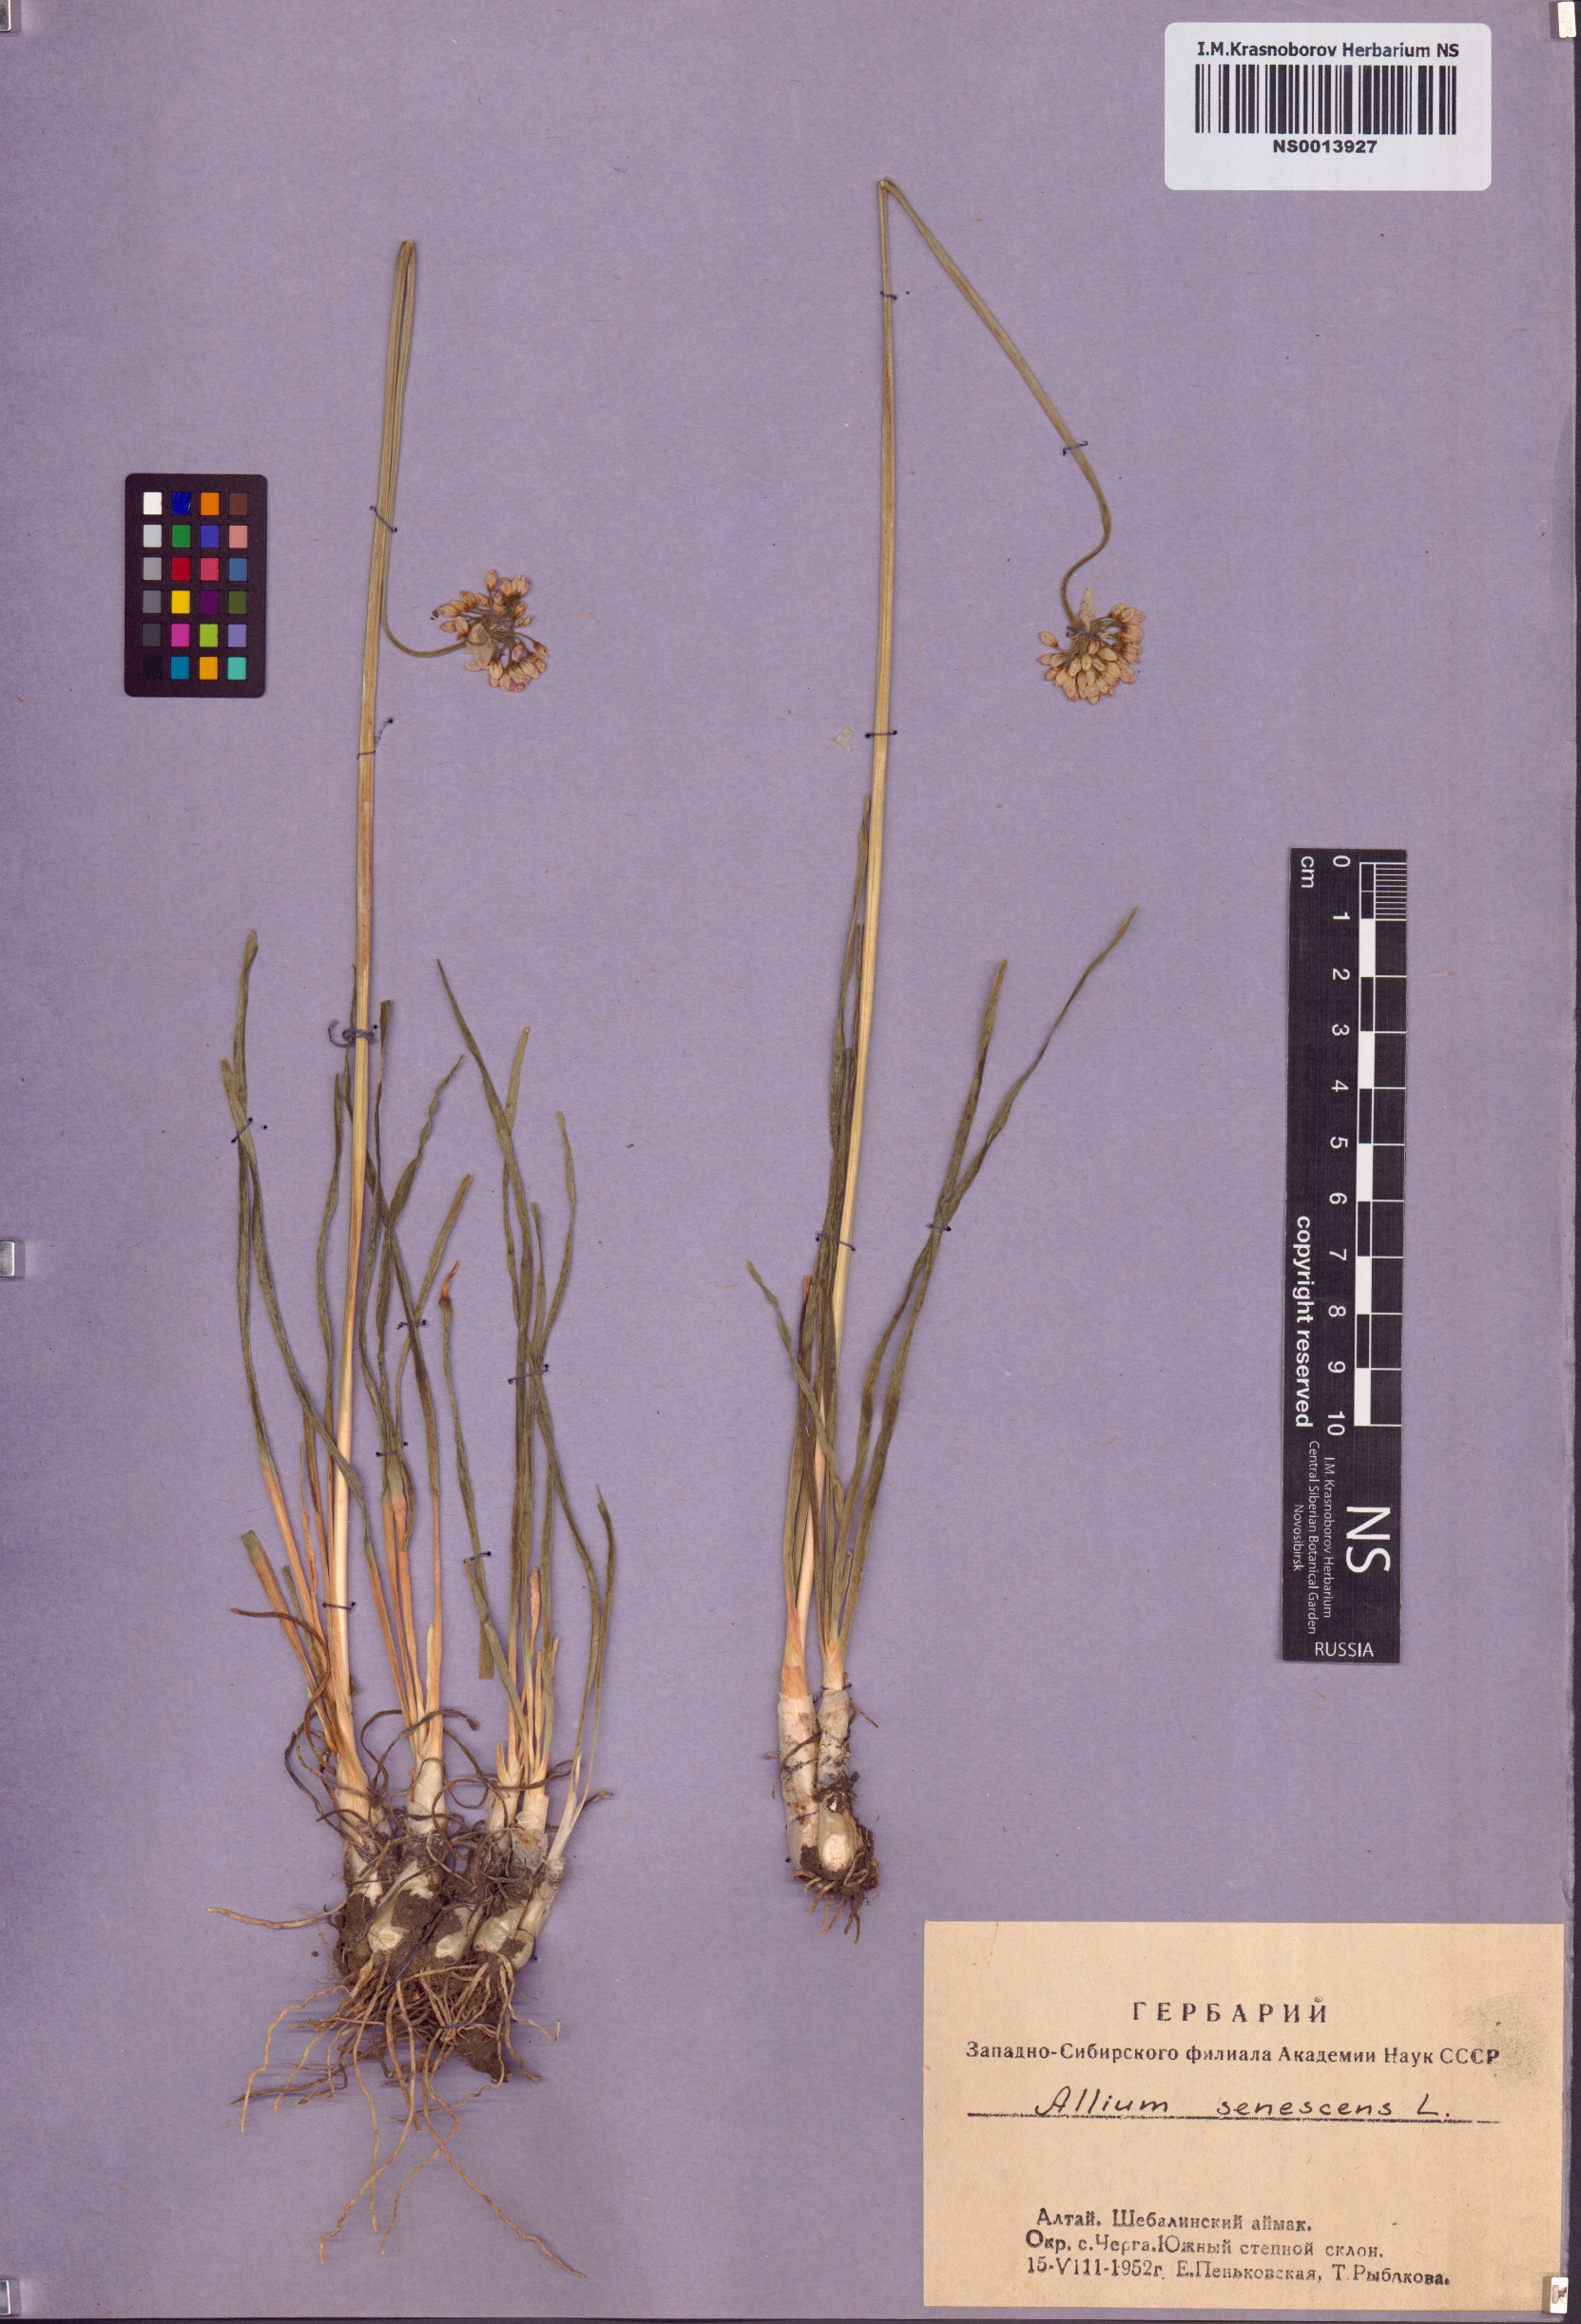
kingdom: Plantae
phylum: Tracheophyta
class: Liliopsida
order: Asparagales
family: Amaryllidaceae
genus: Allium
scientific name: Allium senescens
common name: German garlic
